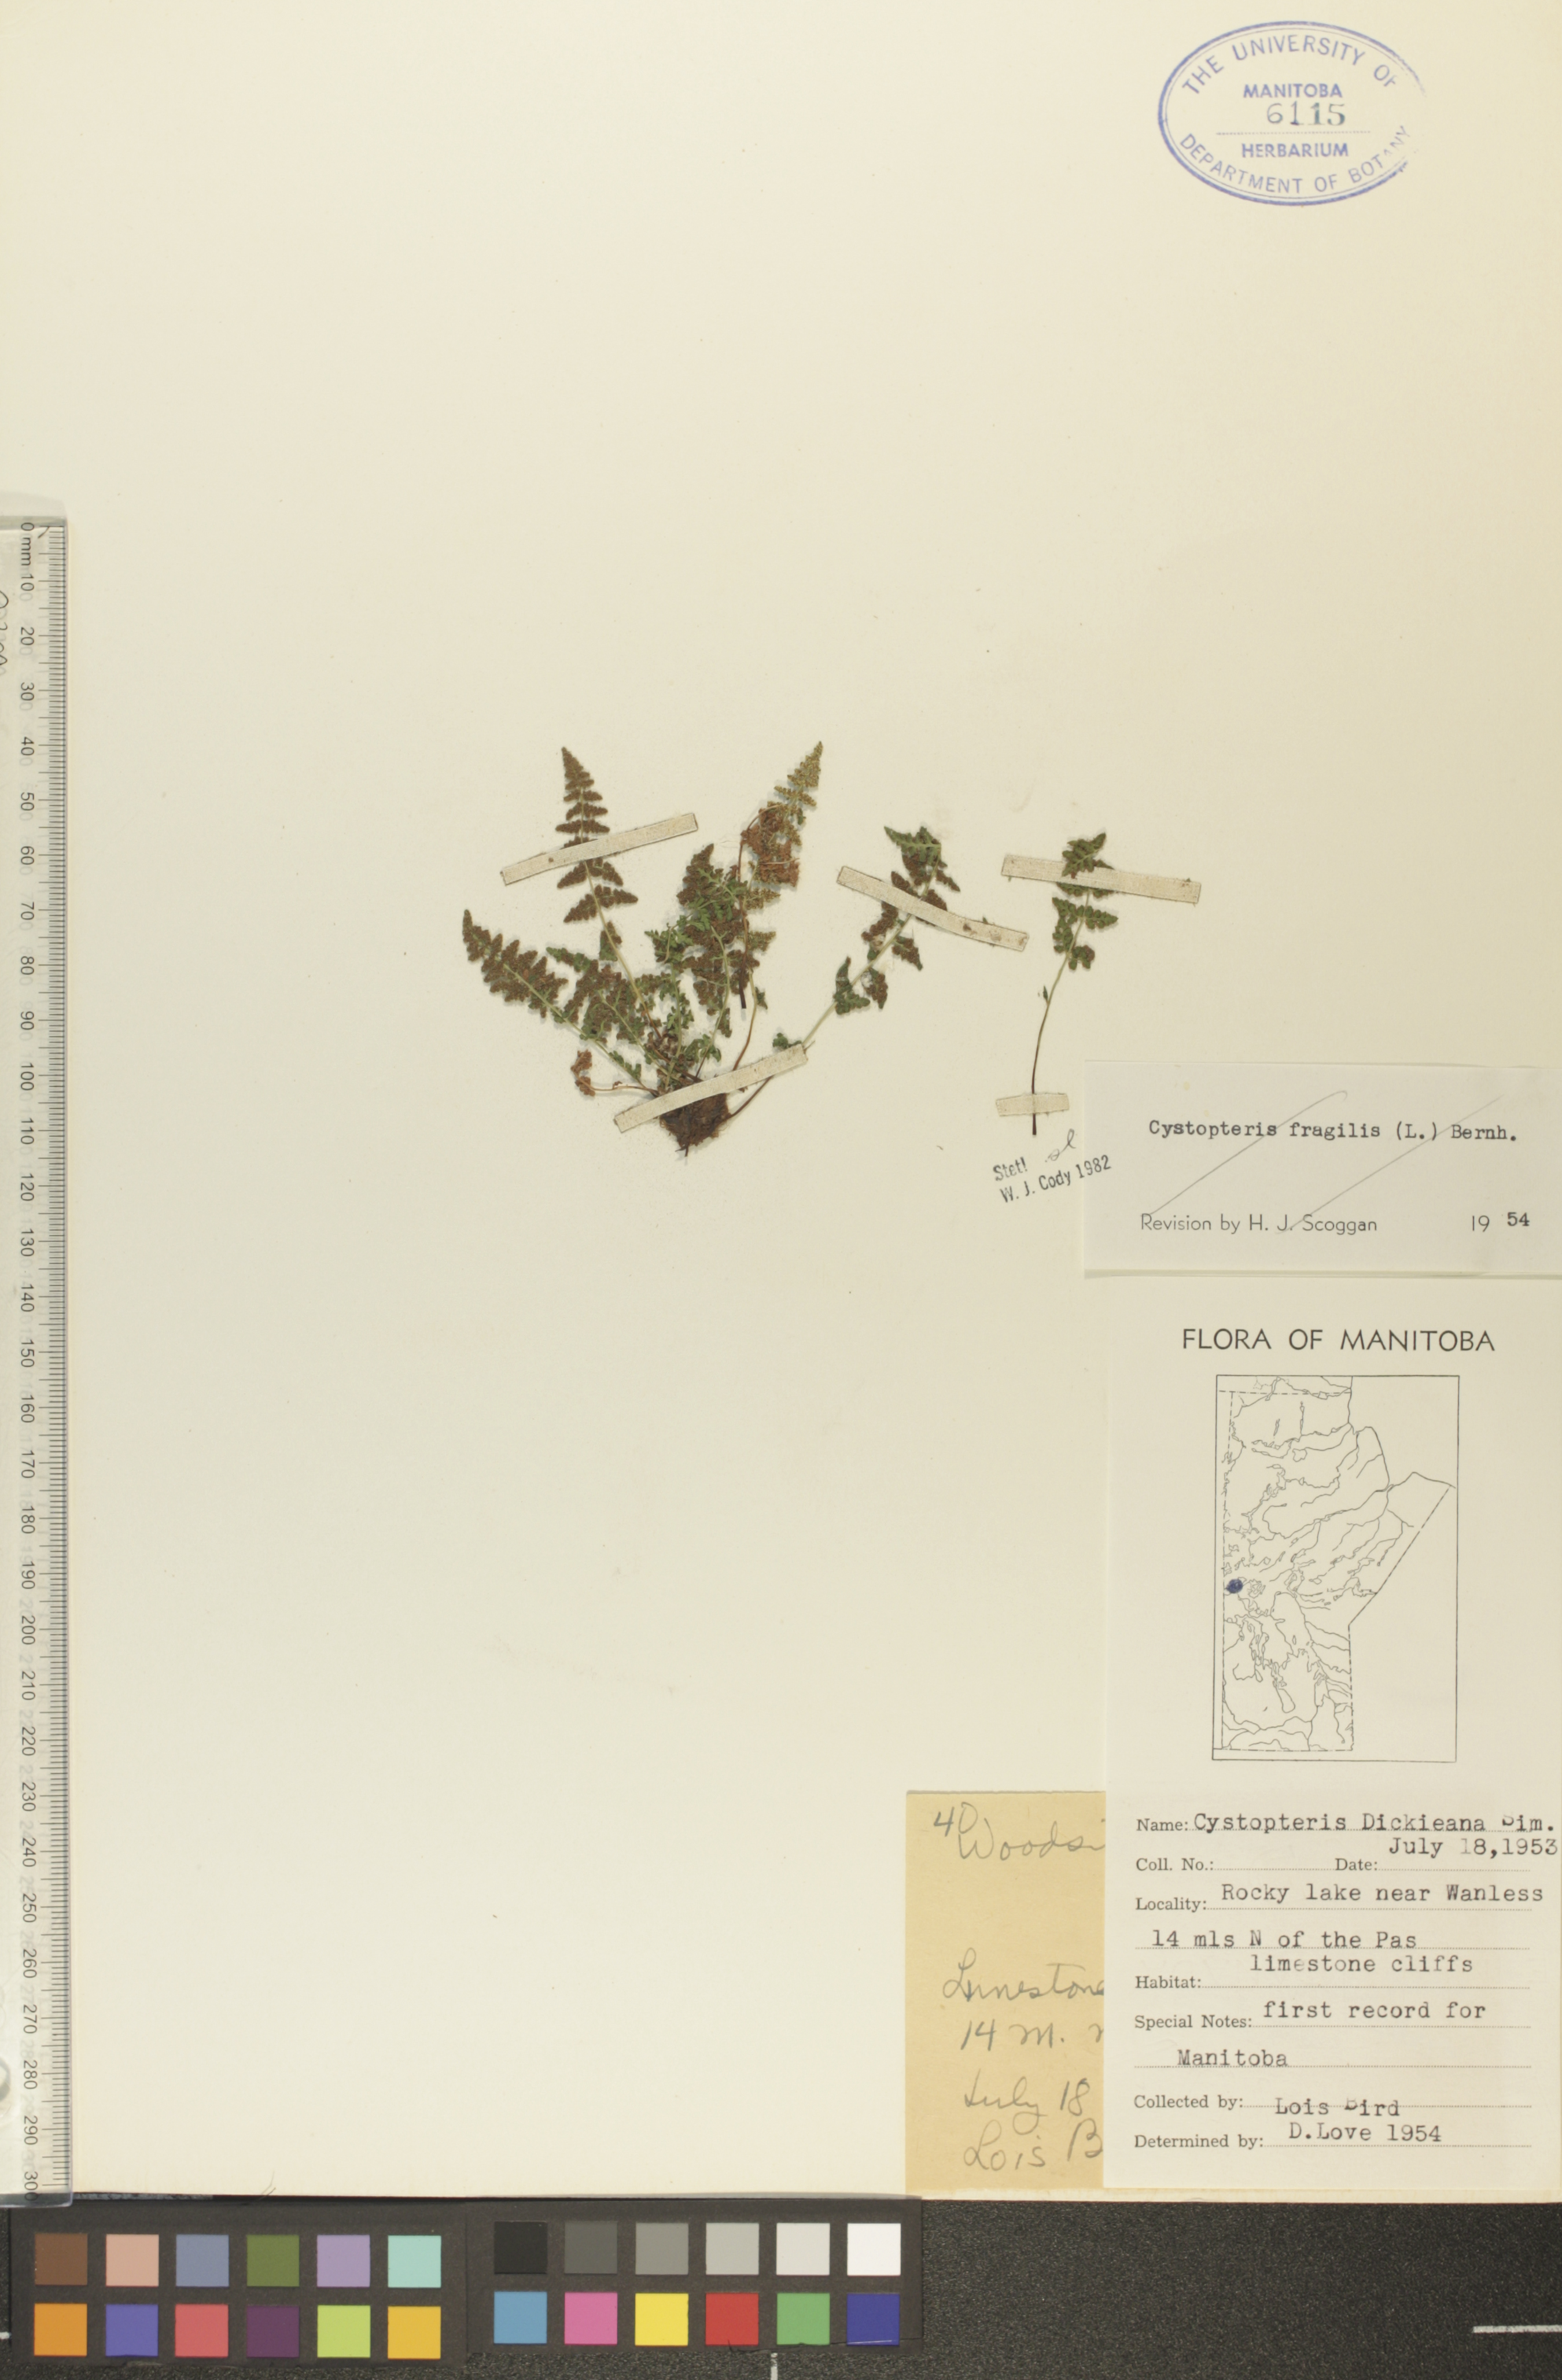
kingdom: Plantae
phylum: Tracheophyta
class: Polypodiopsida
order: Polypodiales
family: Cystopteridaceae
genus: Cystopteris
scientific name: Cystopteris fragilis
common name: Brittle bladder fern
